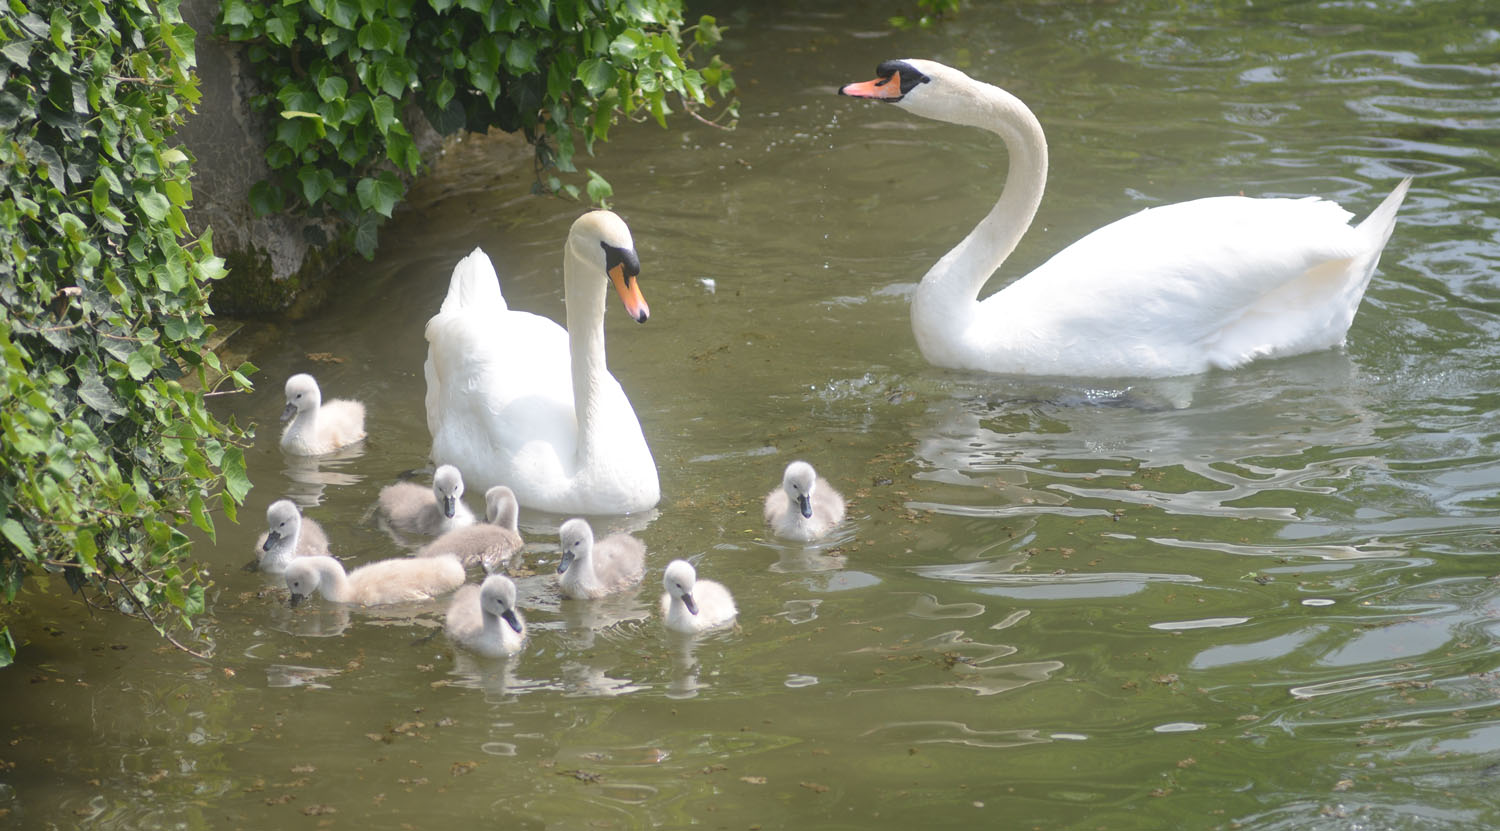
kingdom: Animalia
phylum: Chordata
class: Aves
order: Anseriformes
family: Anatidae
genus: Cygnus
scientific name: Cygnus olor
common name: Mute swan
